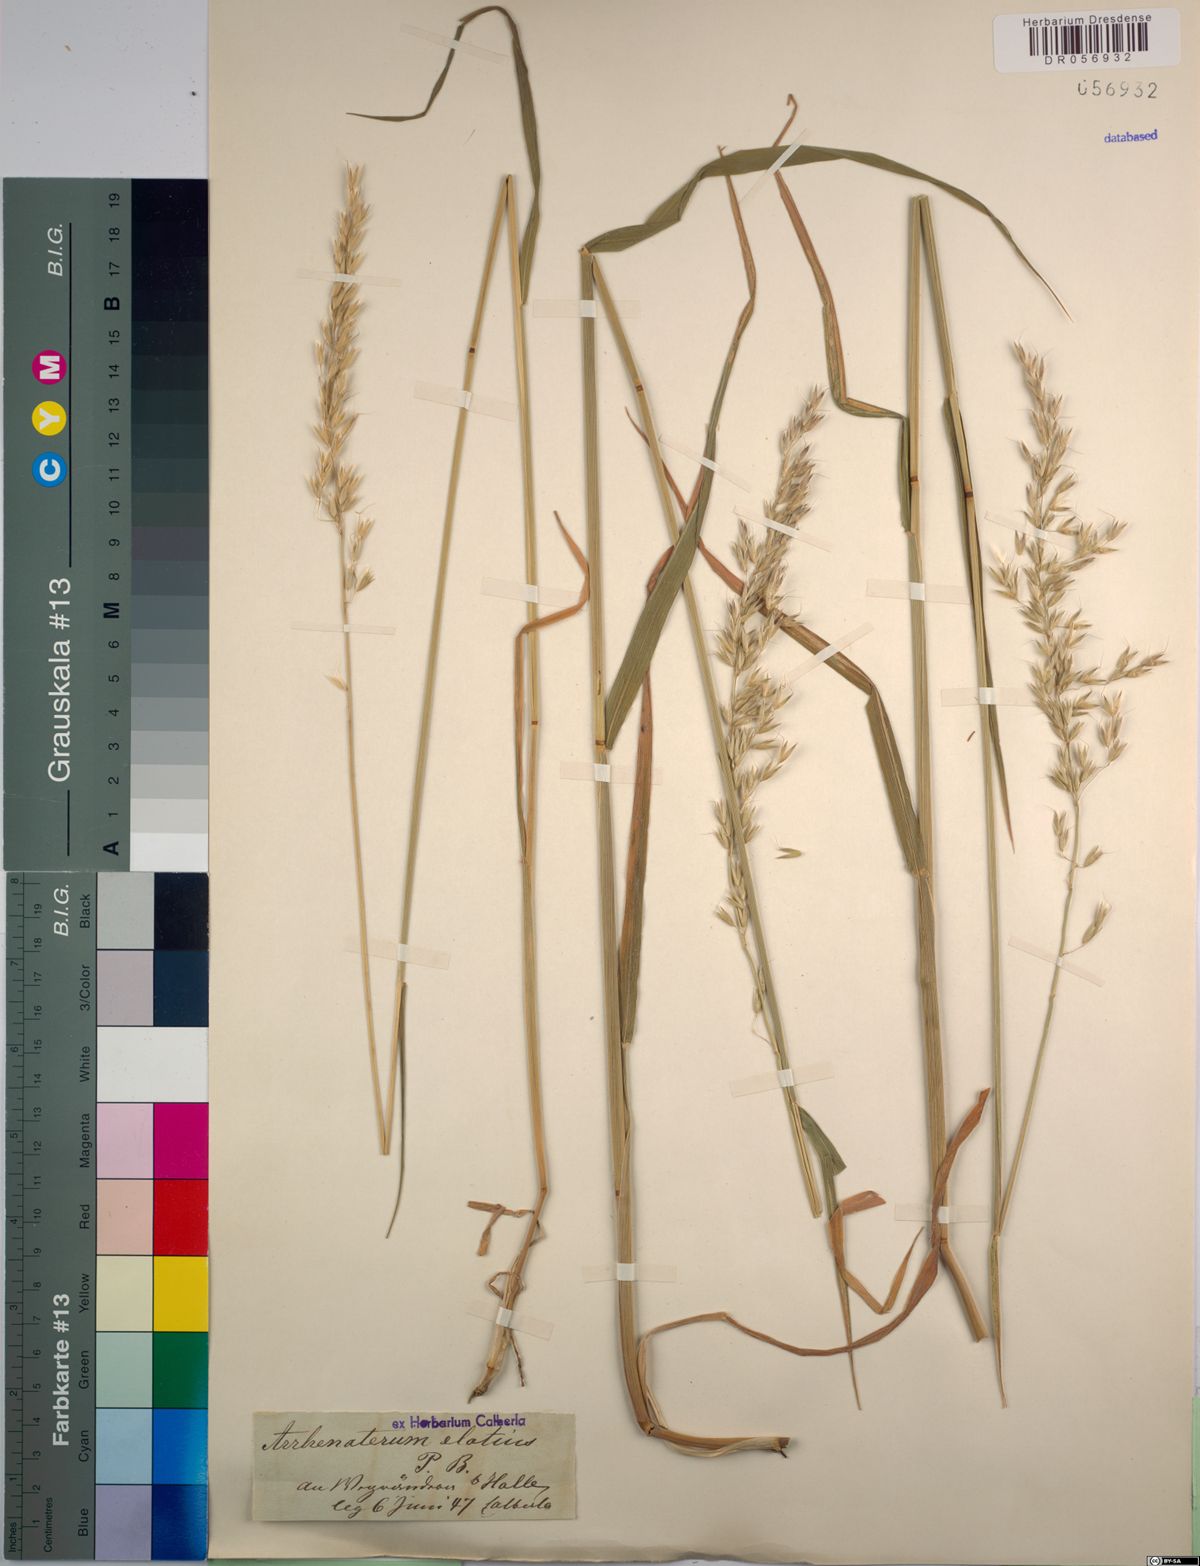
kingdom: Plantae
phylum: Tracheophyta
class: Liliopsida
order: Poales
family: Poaceae
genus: Arrhenatherum
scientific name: Arrhenatherum elatius
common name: Tall oatgrass
